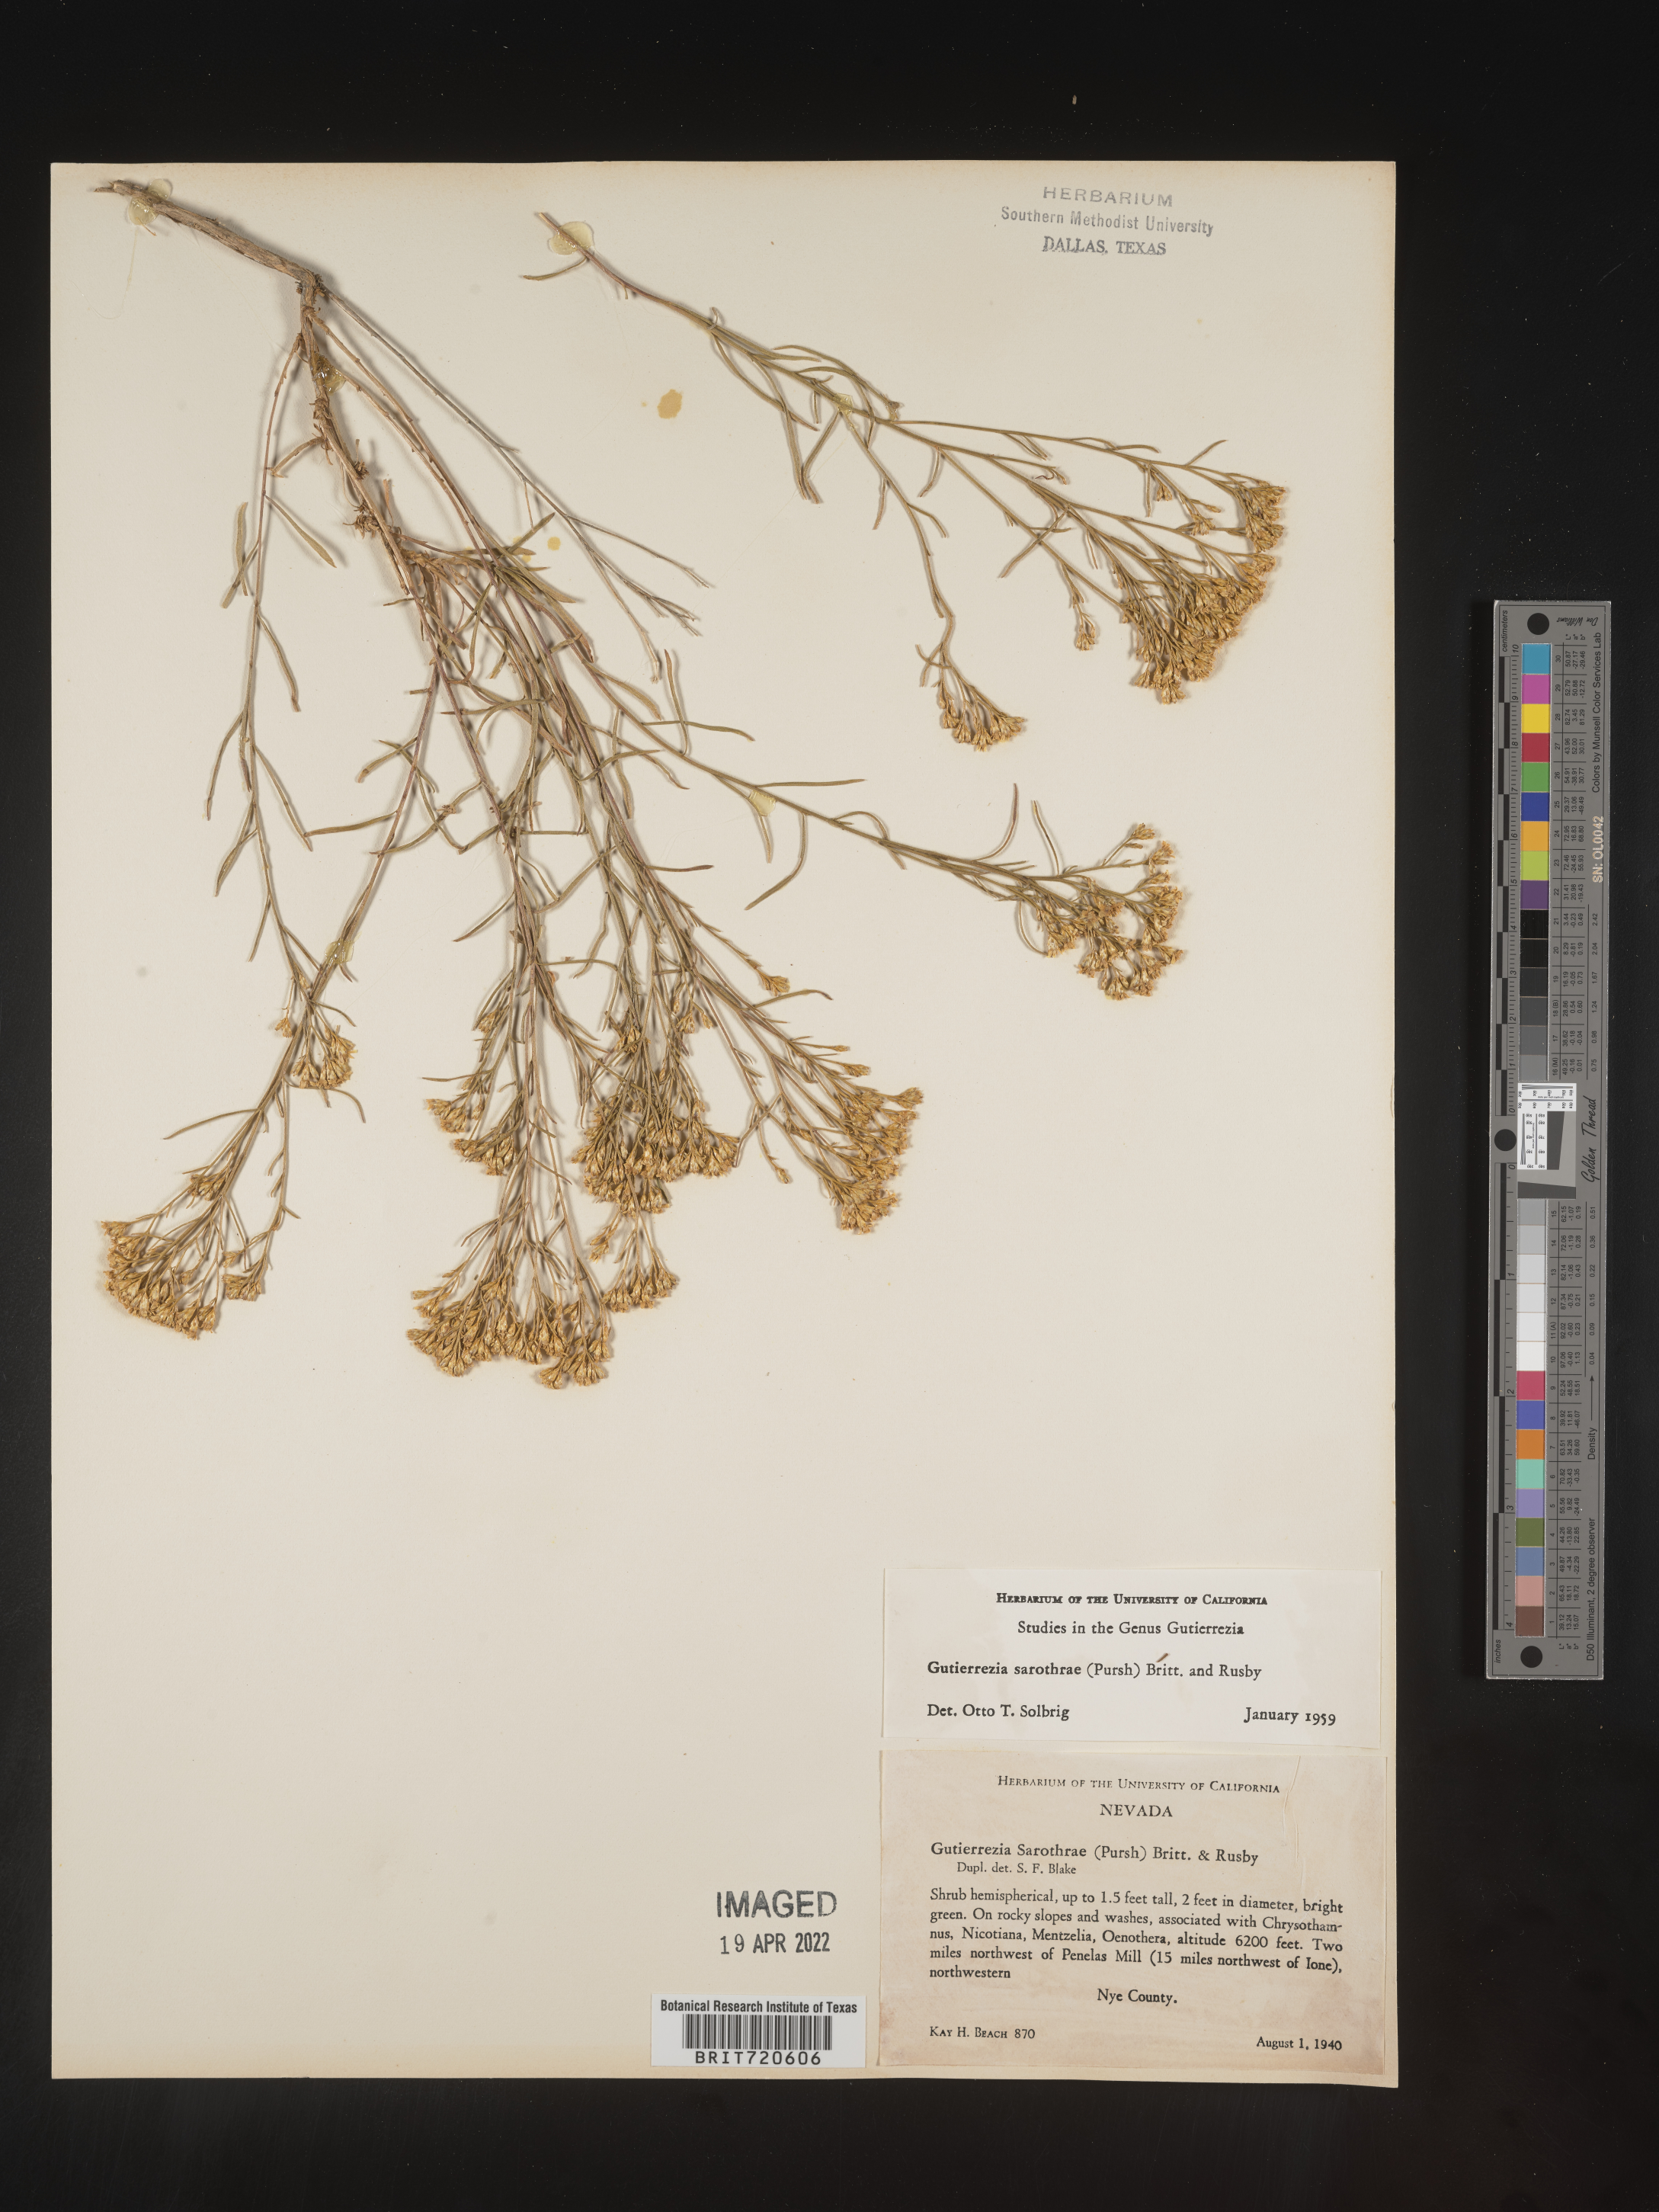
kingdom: Plantae
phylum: Tracheophyta
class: Magnoliopsida
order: Asterales
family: Asteraceae
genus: Gutierrezia
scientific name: Gutierrezia sarothrae
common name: Broom snakeweed
